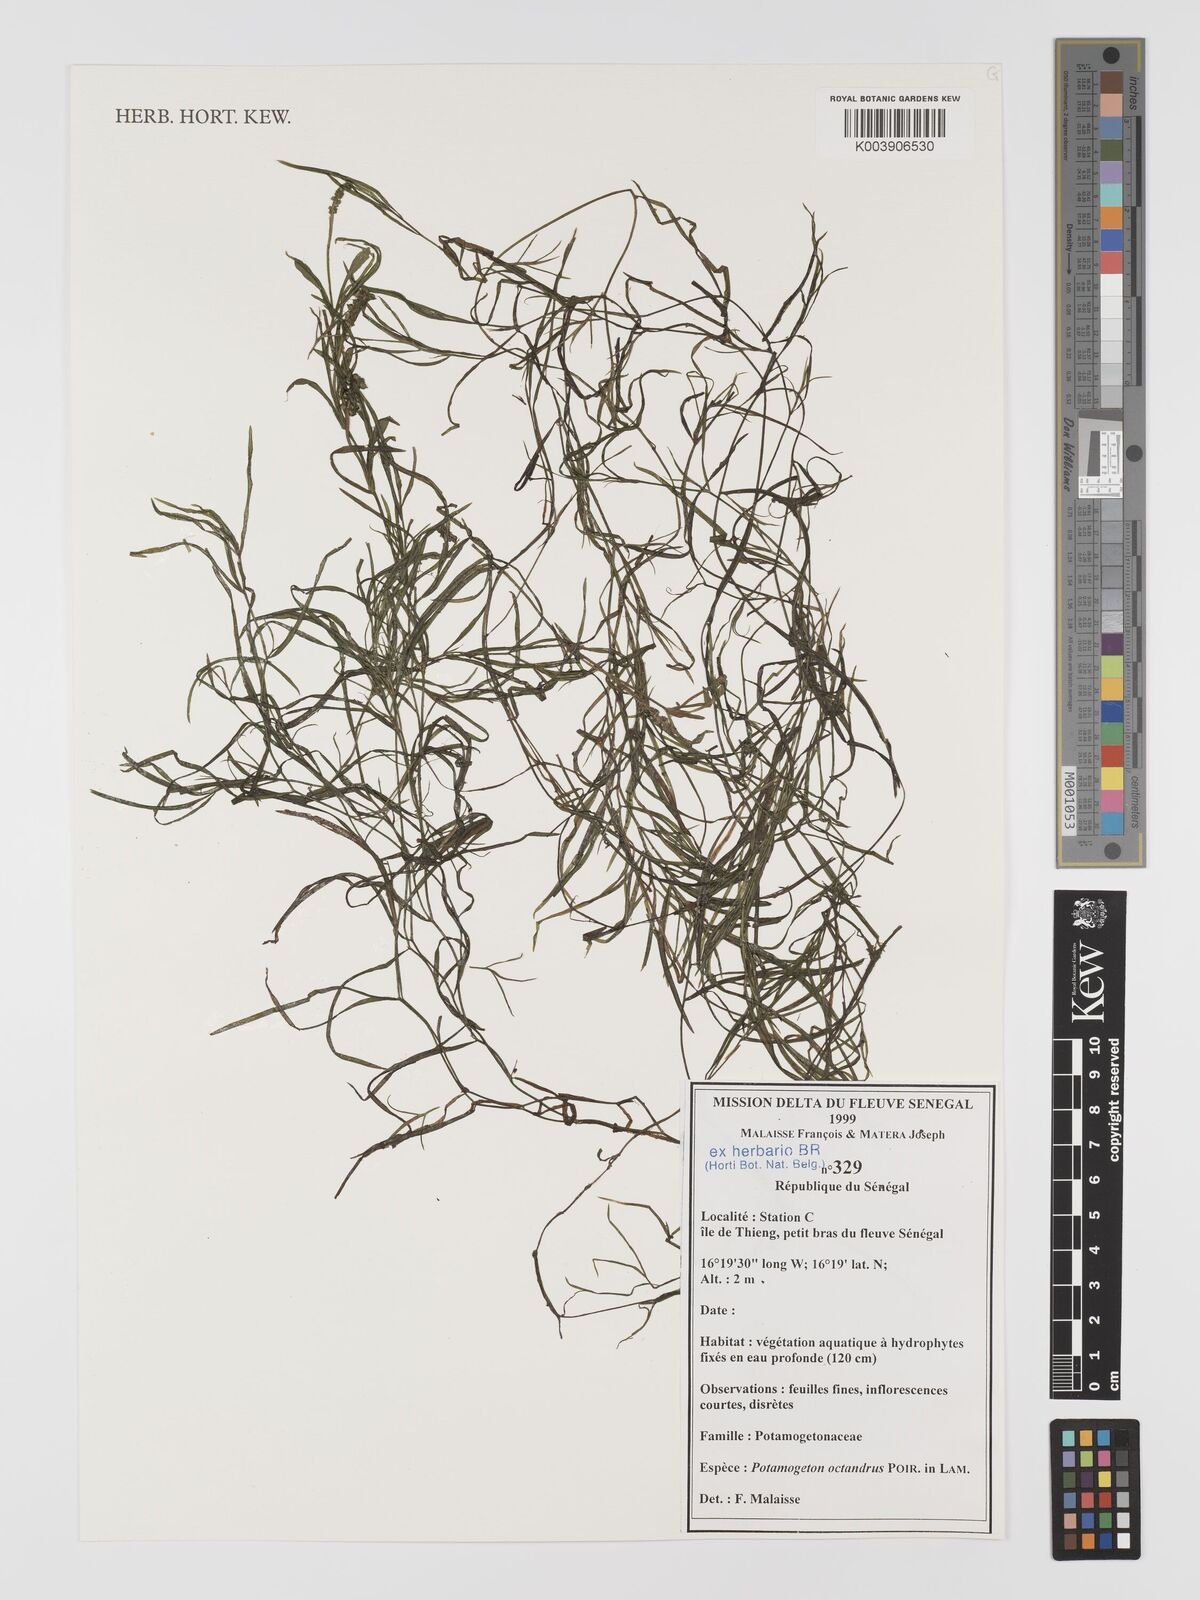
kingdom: Plantae
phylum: Tracheophyta
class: Liliopsida
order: Alismatales
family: Potamogetonaceae
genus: Potamogeton
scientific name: Potamogeton octandrus
